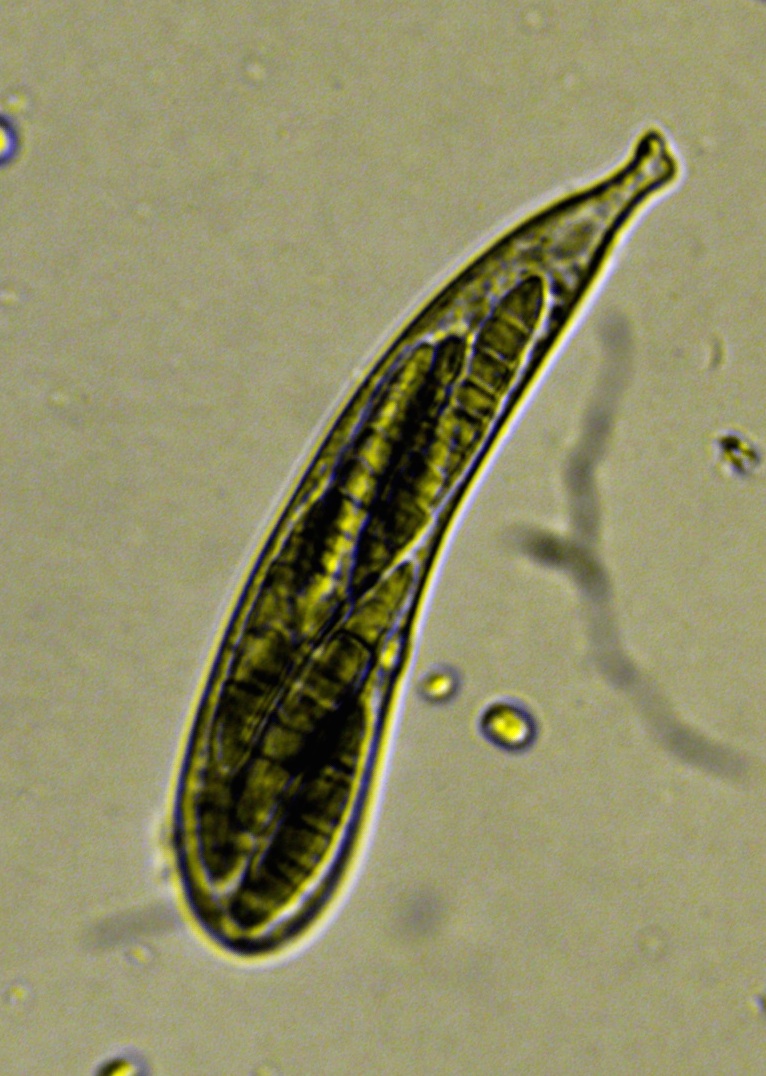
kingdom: Fungi
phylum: Ascomycota
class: Leotiomycetes
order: Helotiales
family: Helotiaceae
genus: Durella
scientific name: Durella connivens
